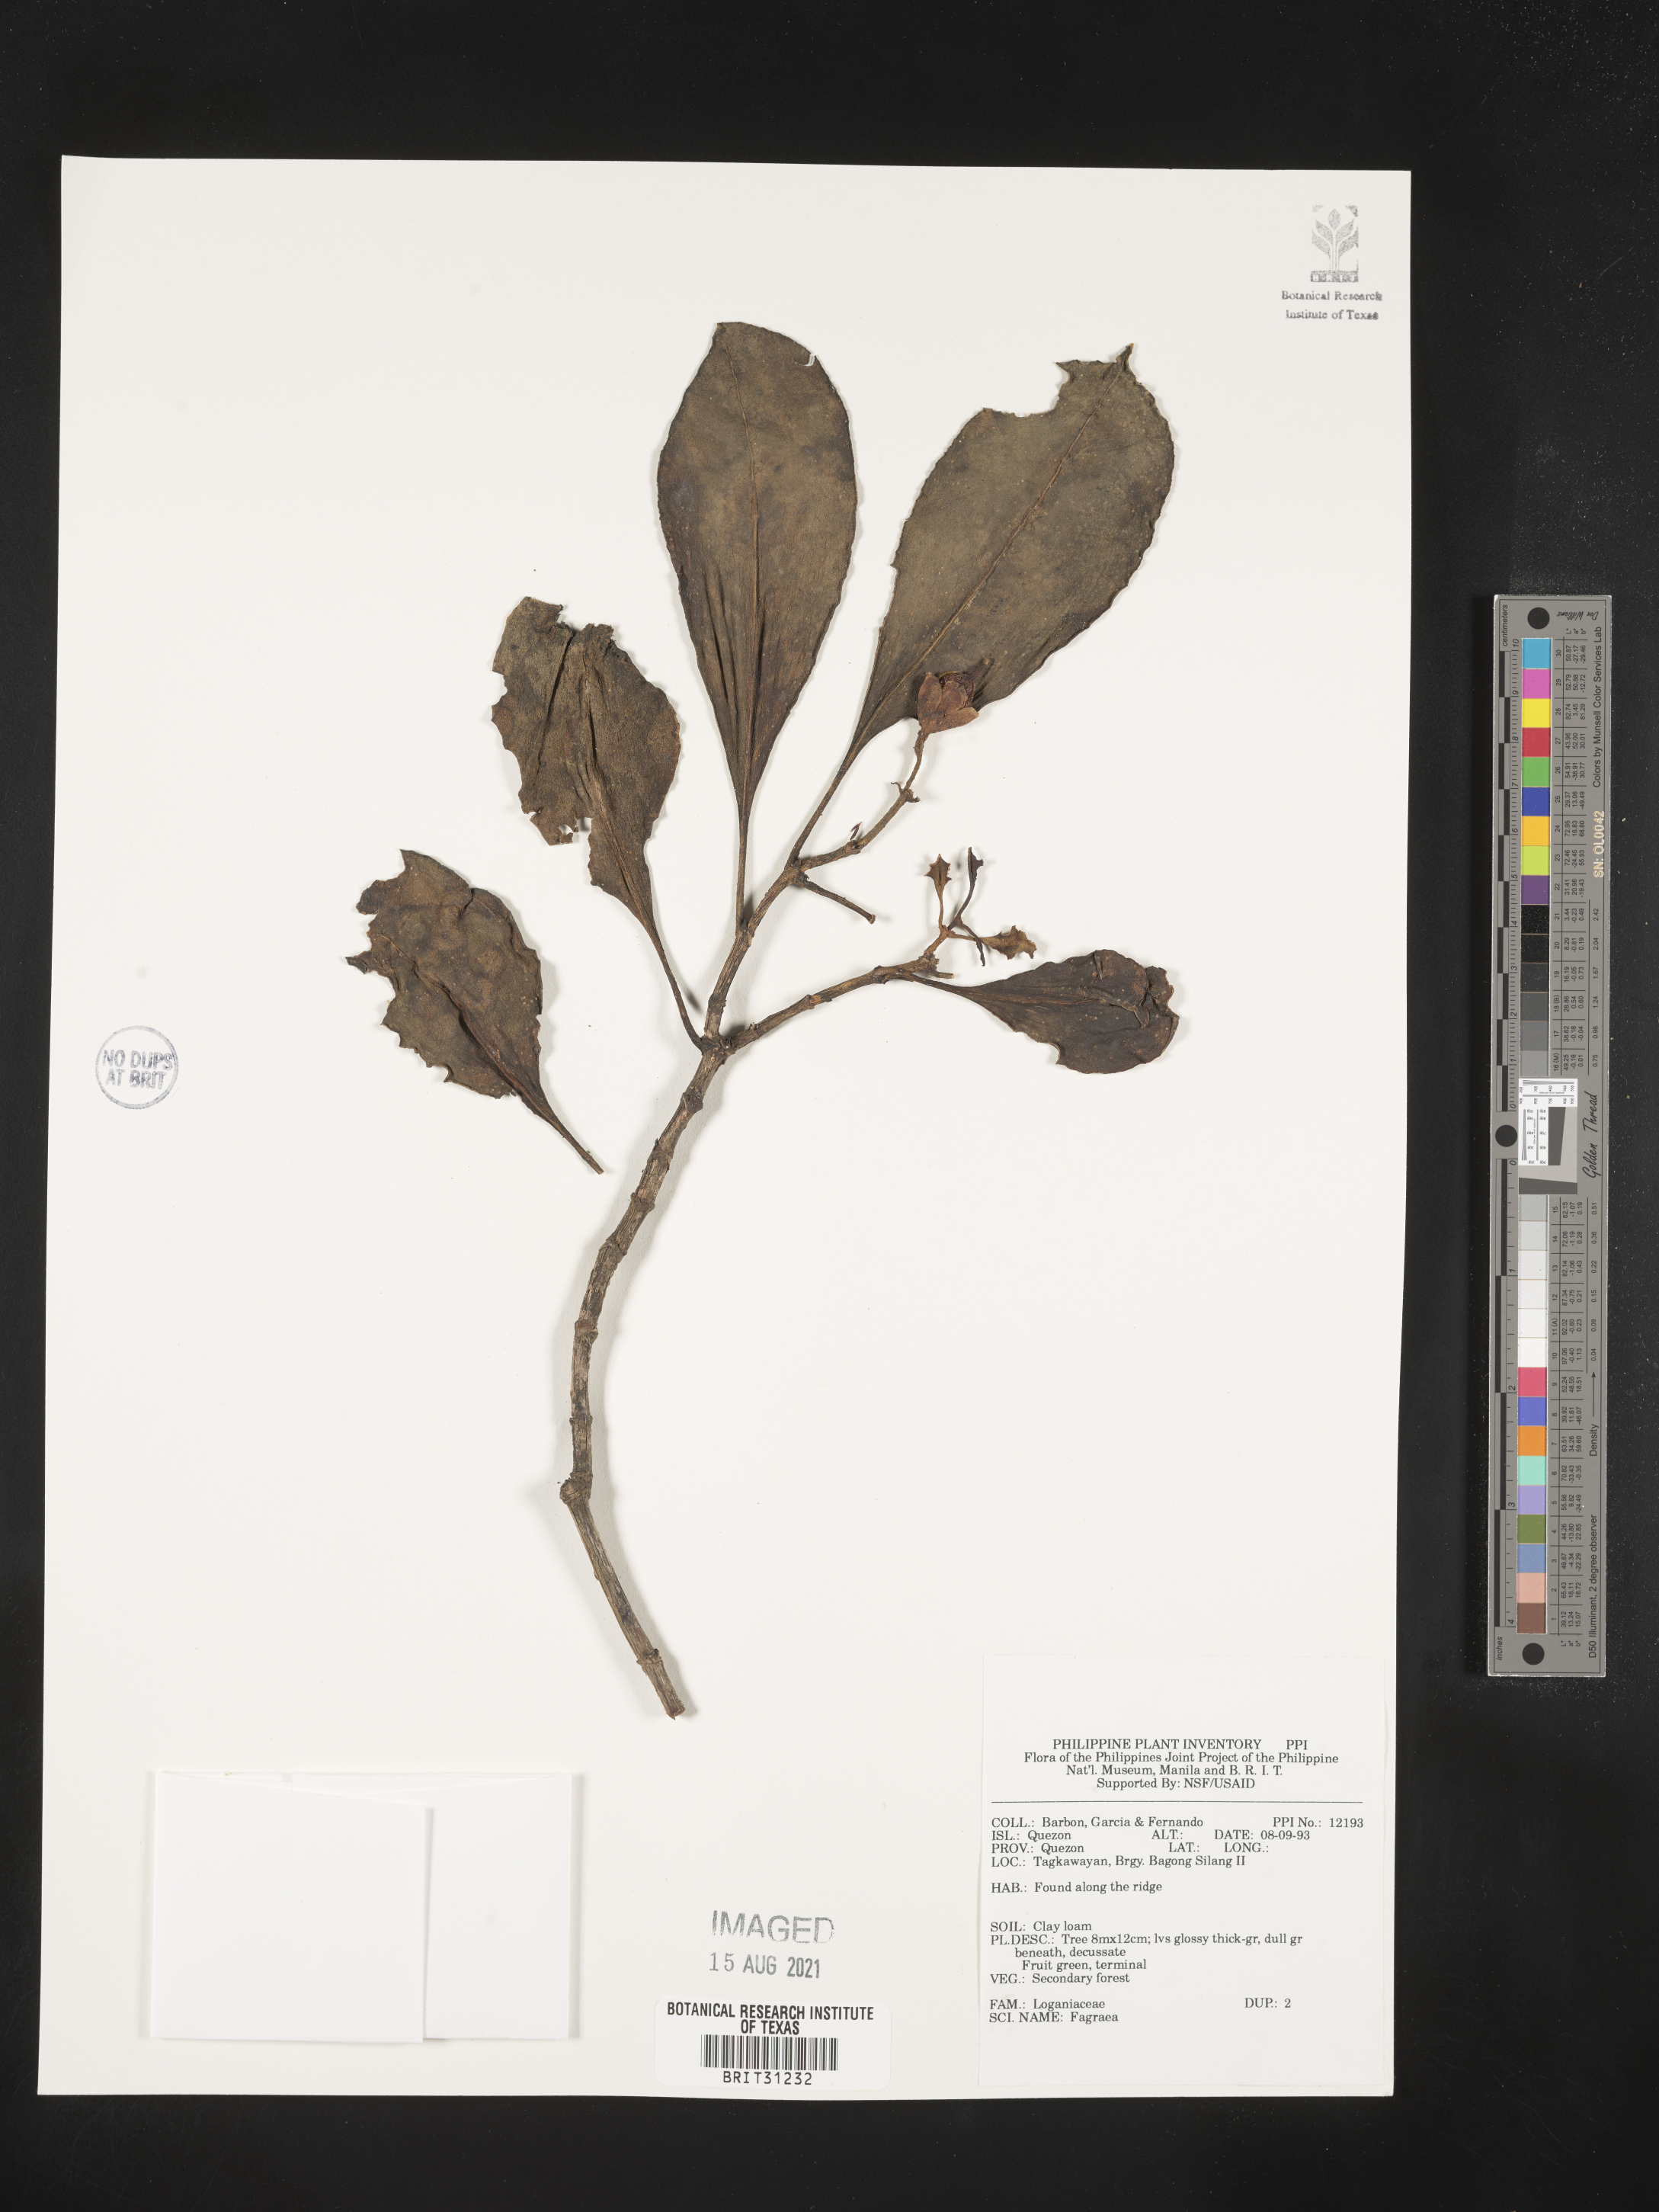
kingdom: Plantae
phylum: Tracheophyta
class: Magnoliopsida
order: Gentianales
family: Gentianaceae
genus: Fagraea
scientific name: Fagraea
